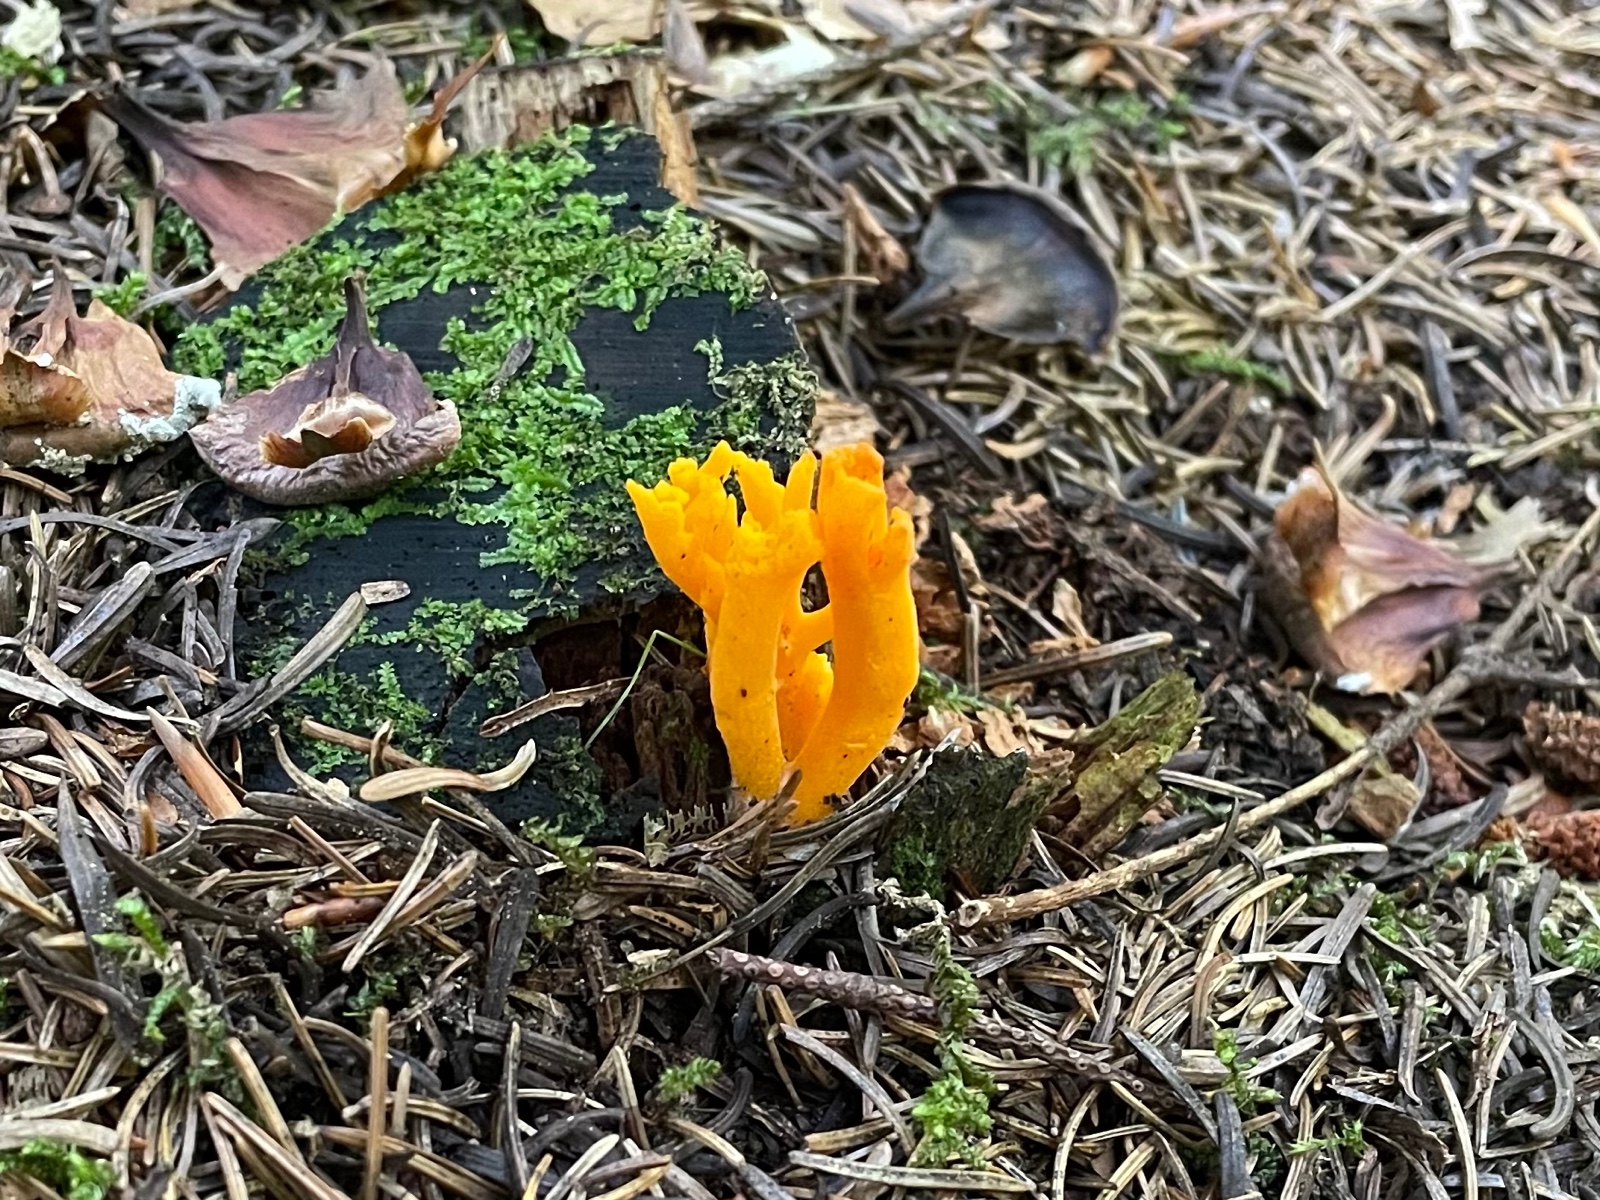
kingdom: Fungi
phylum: Basidiomycota
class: Dacrymycetes
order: Dacrymycetales
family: Dacrymycetaceae
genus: Calocera
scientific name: Calocera viscosa
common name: almindelig guldgaffel
